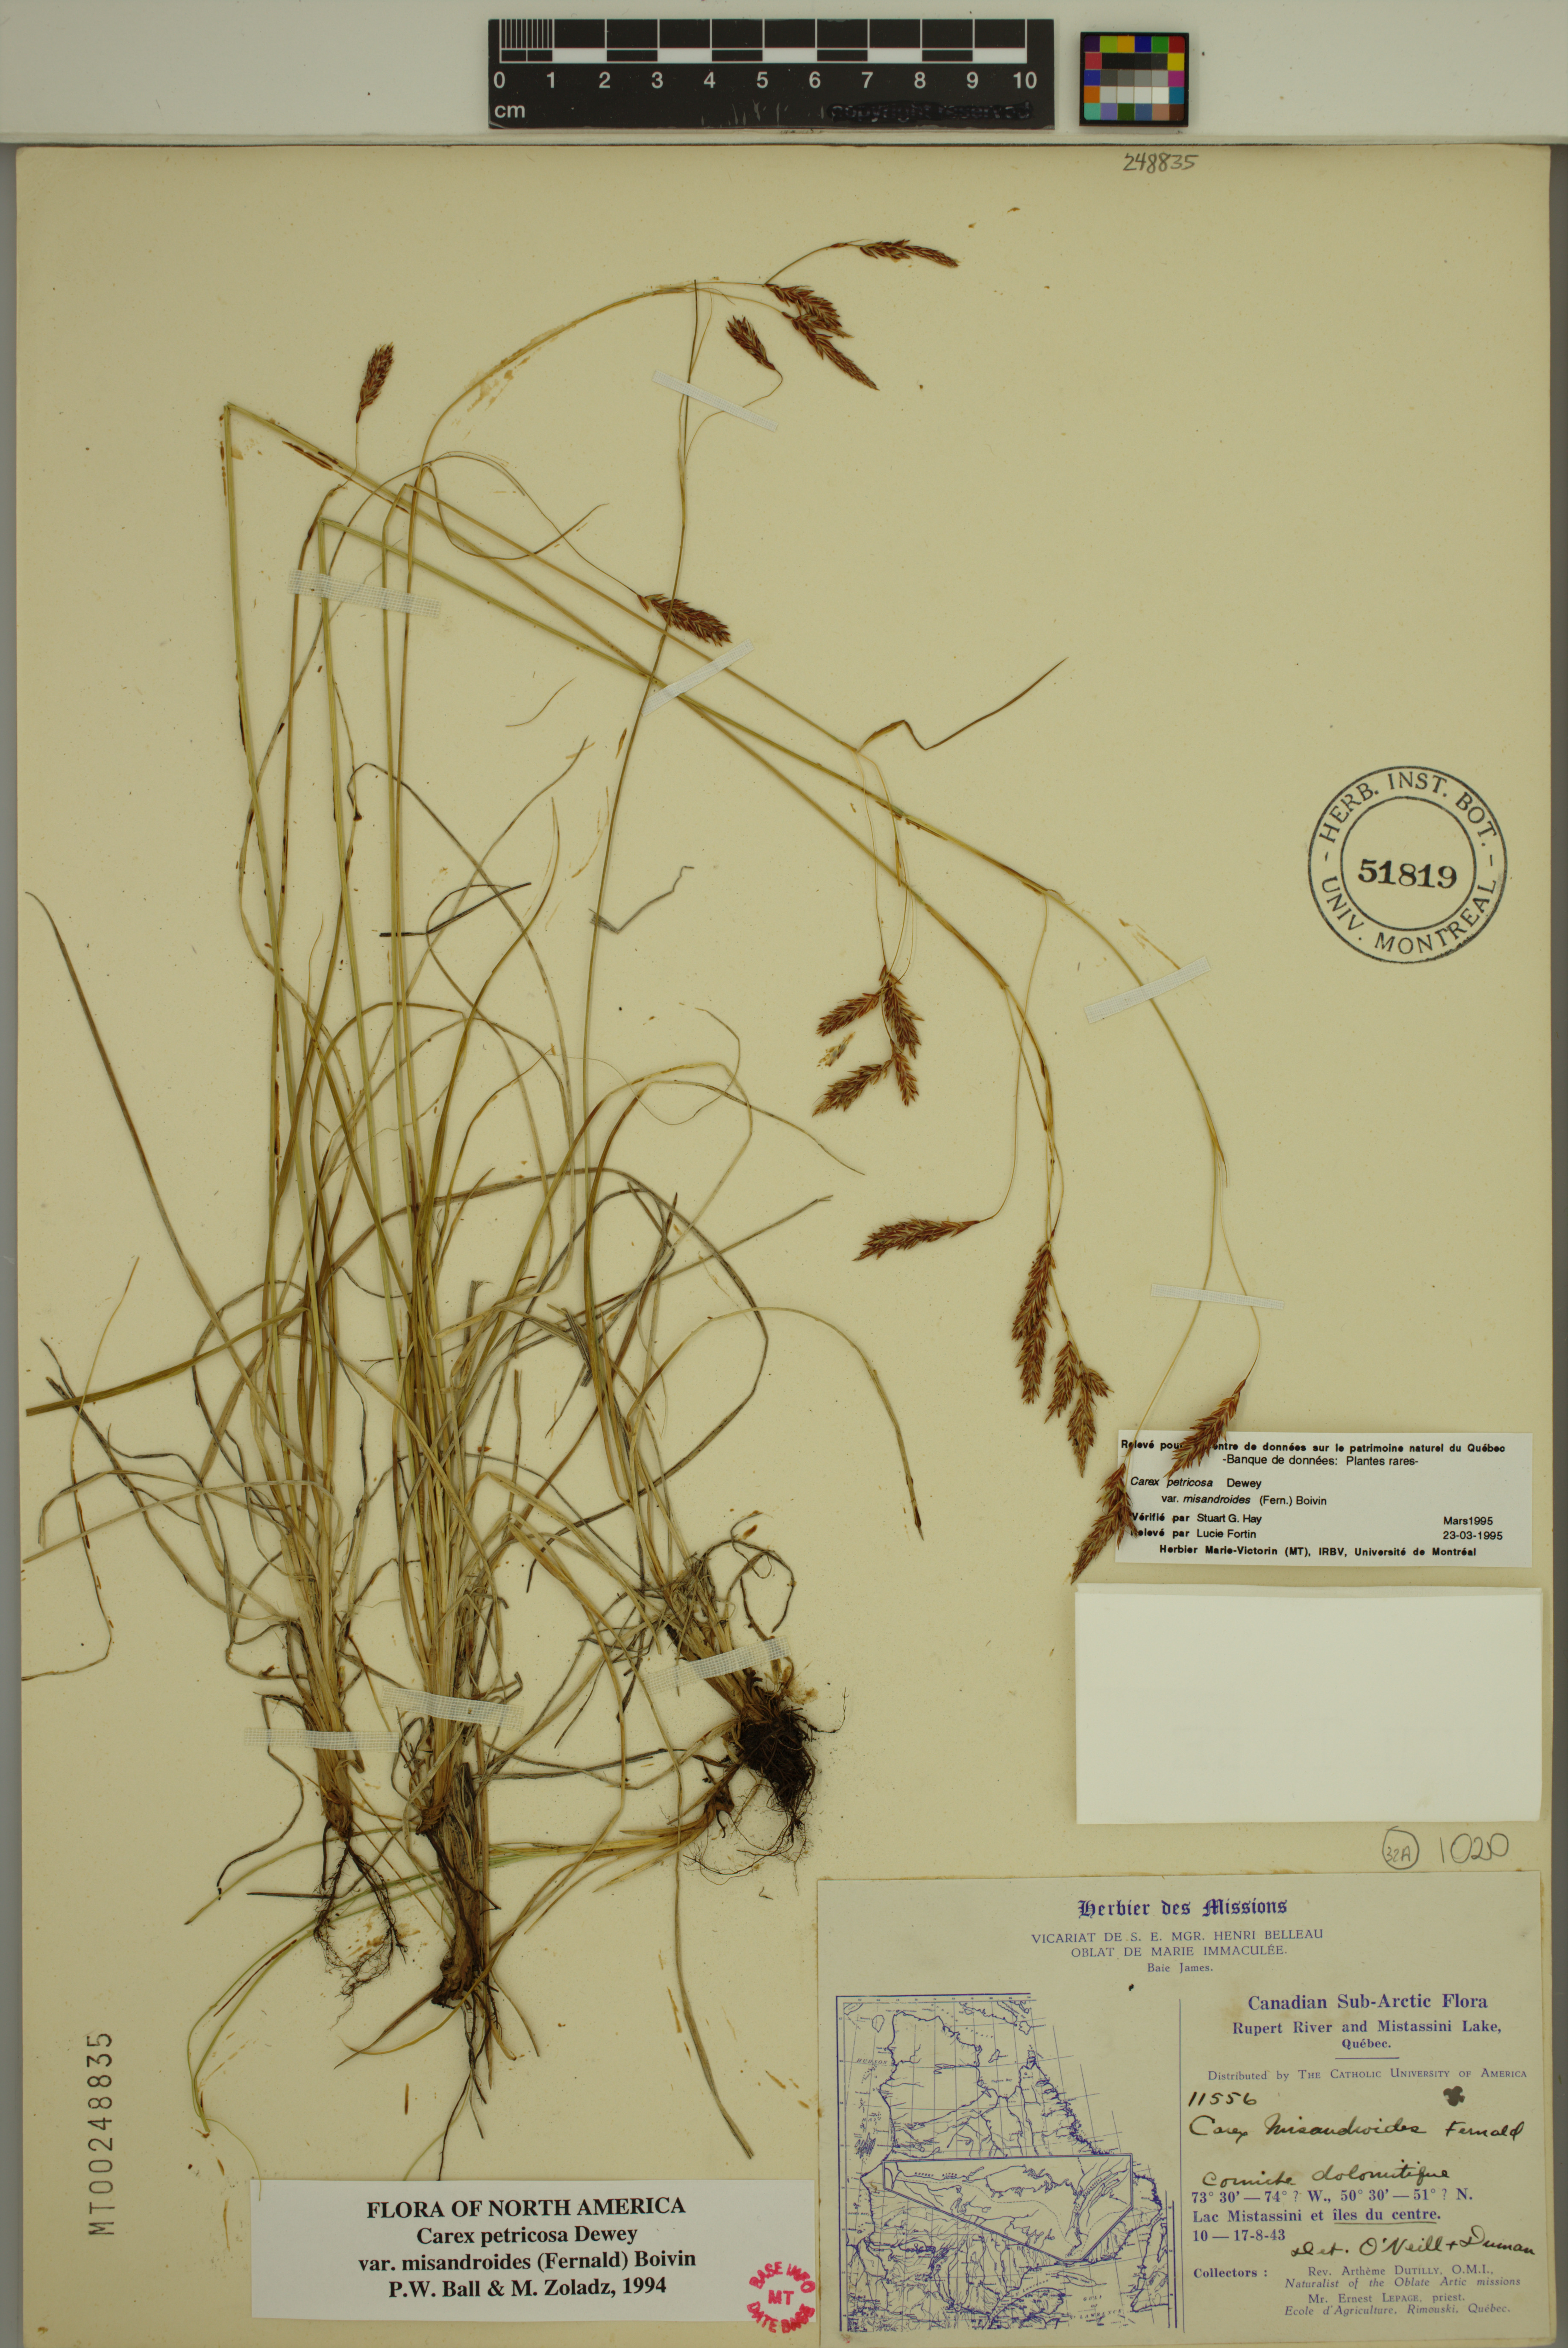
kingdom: Plantae
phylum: Tracheophyta
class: Liliopsida
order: Poales
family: Cyperaceae
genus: Carex
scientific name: Carex petricosa
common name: Rock sedge
